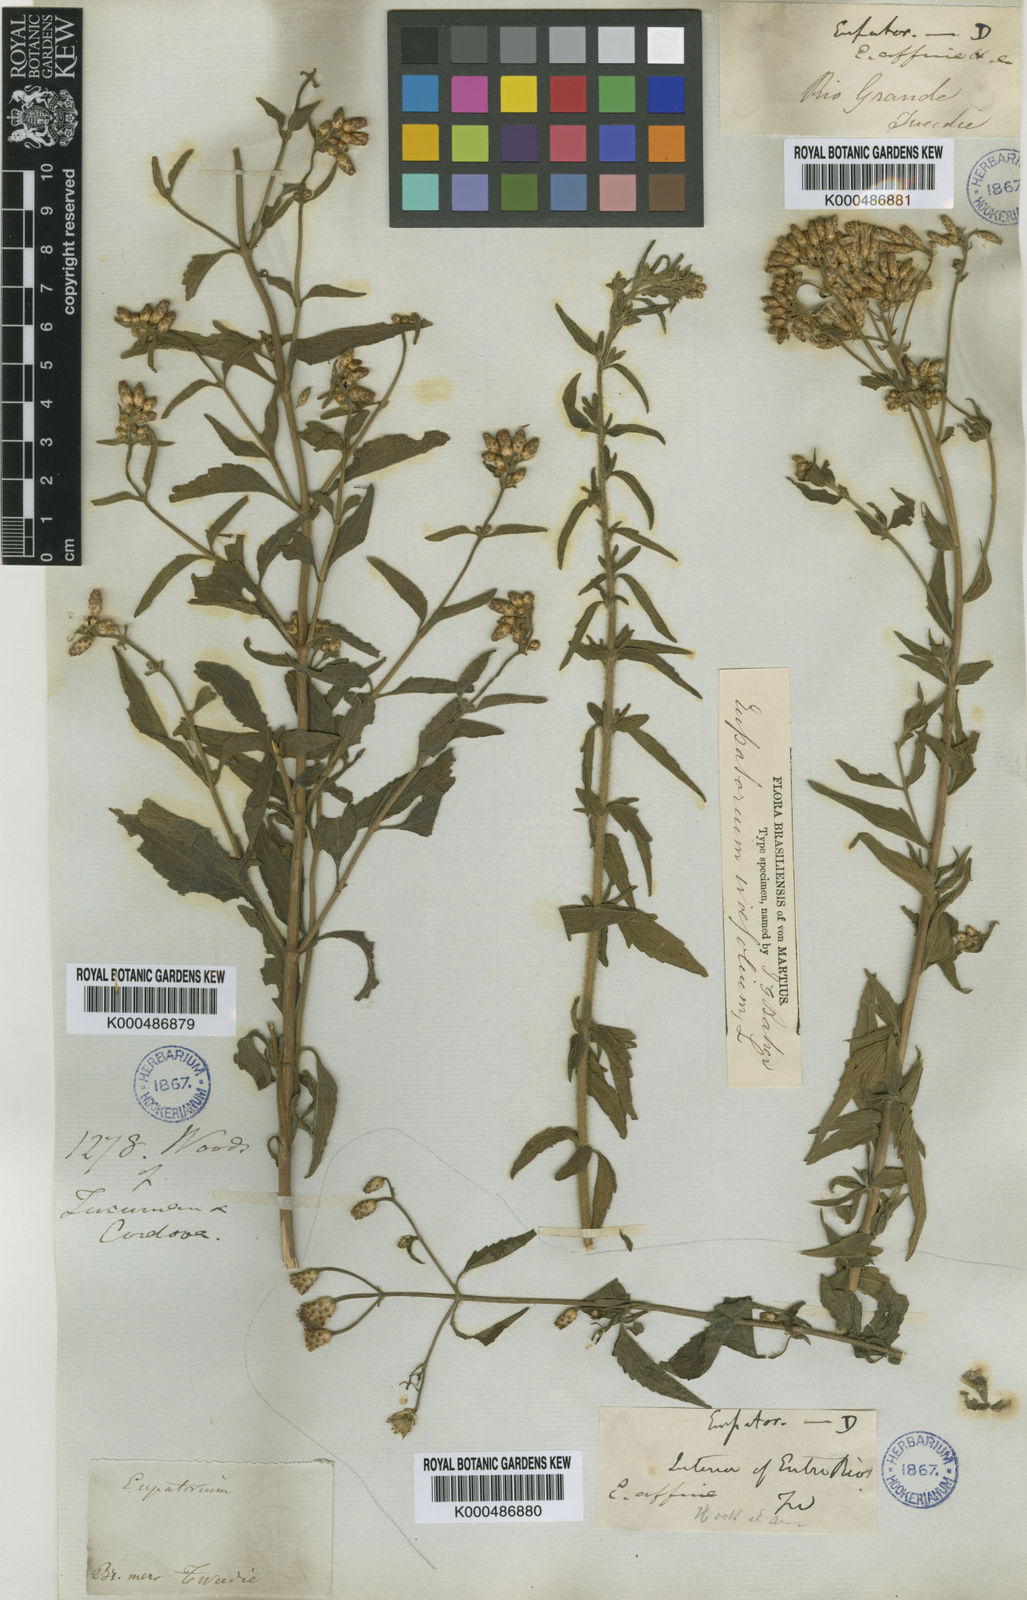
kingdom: Plantae
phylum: Tracheophyta
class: Magnoliopsida
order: Asterales
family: Asteraceae
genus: Chromolaena
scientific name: Chromolaena ivifolia
